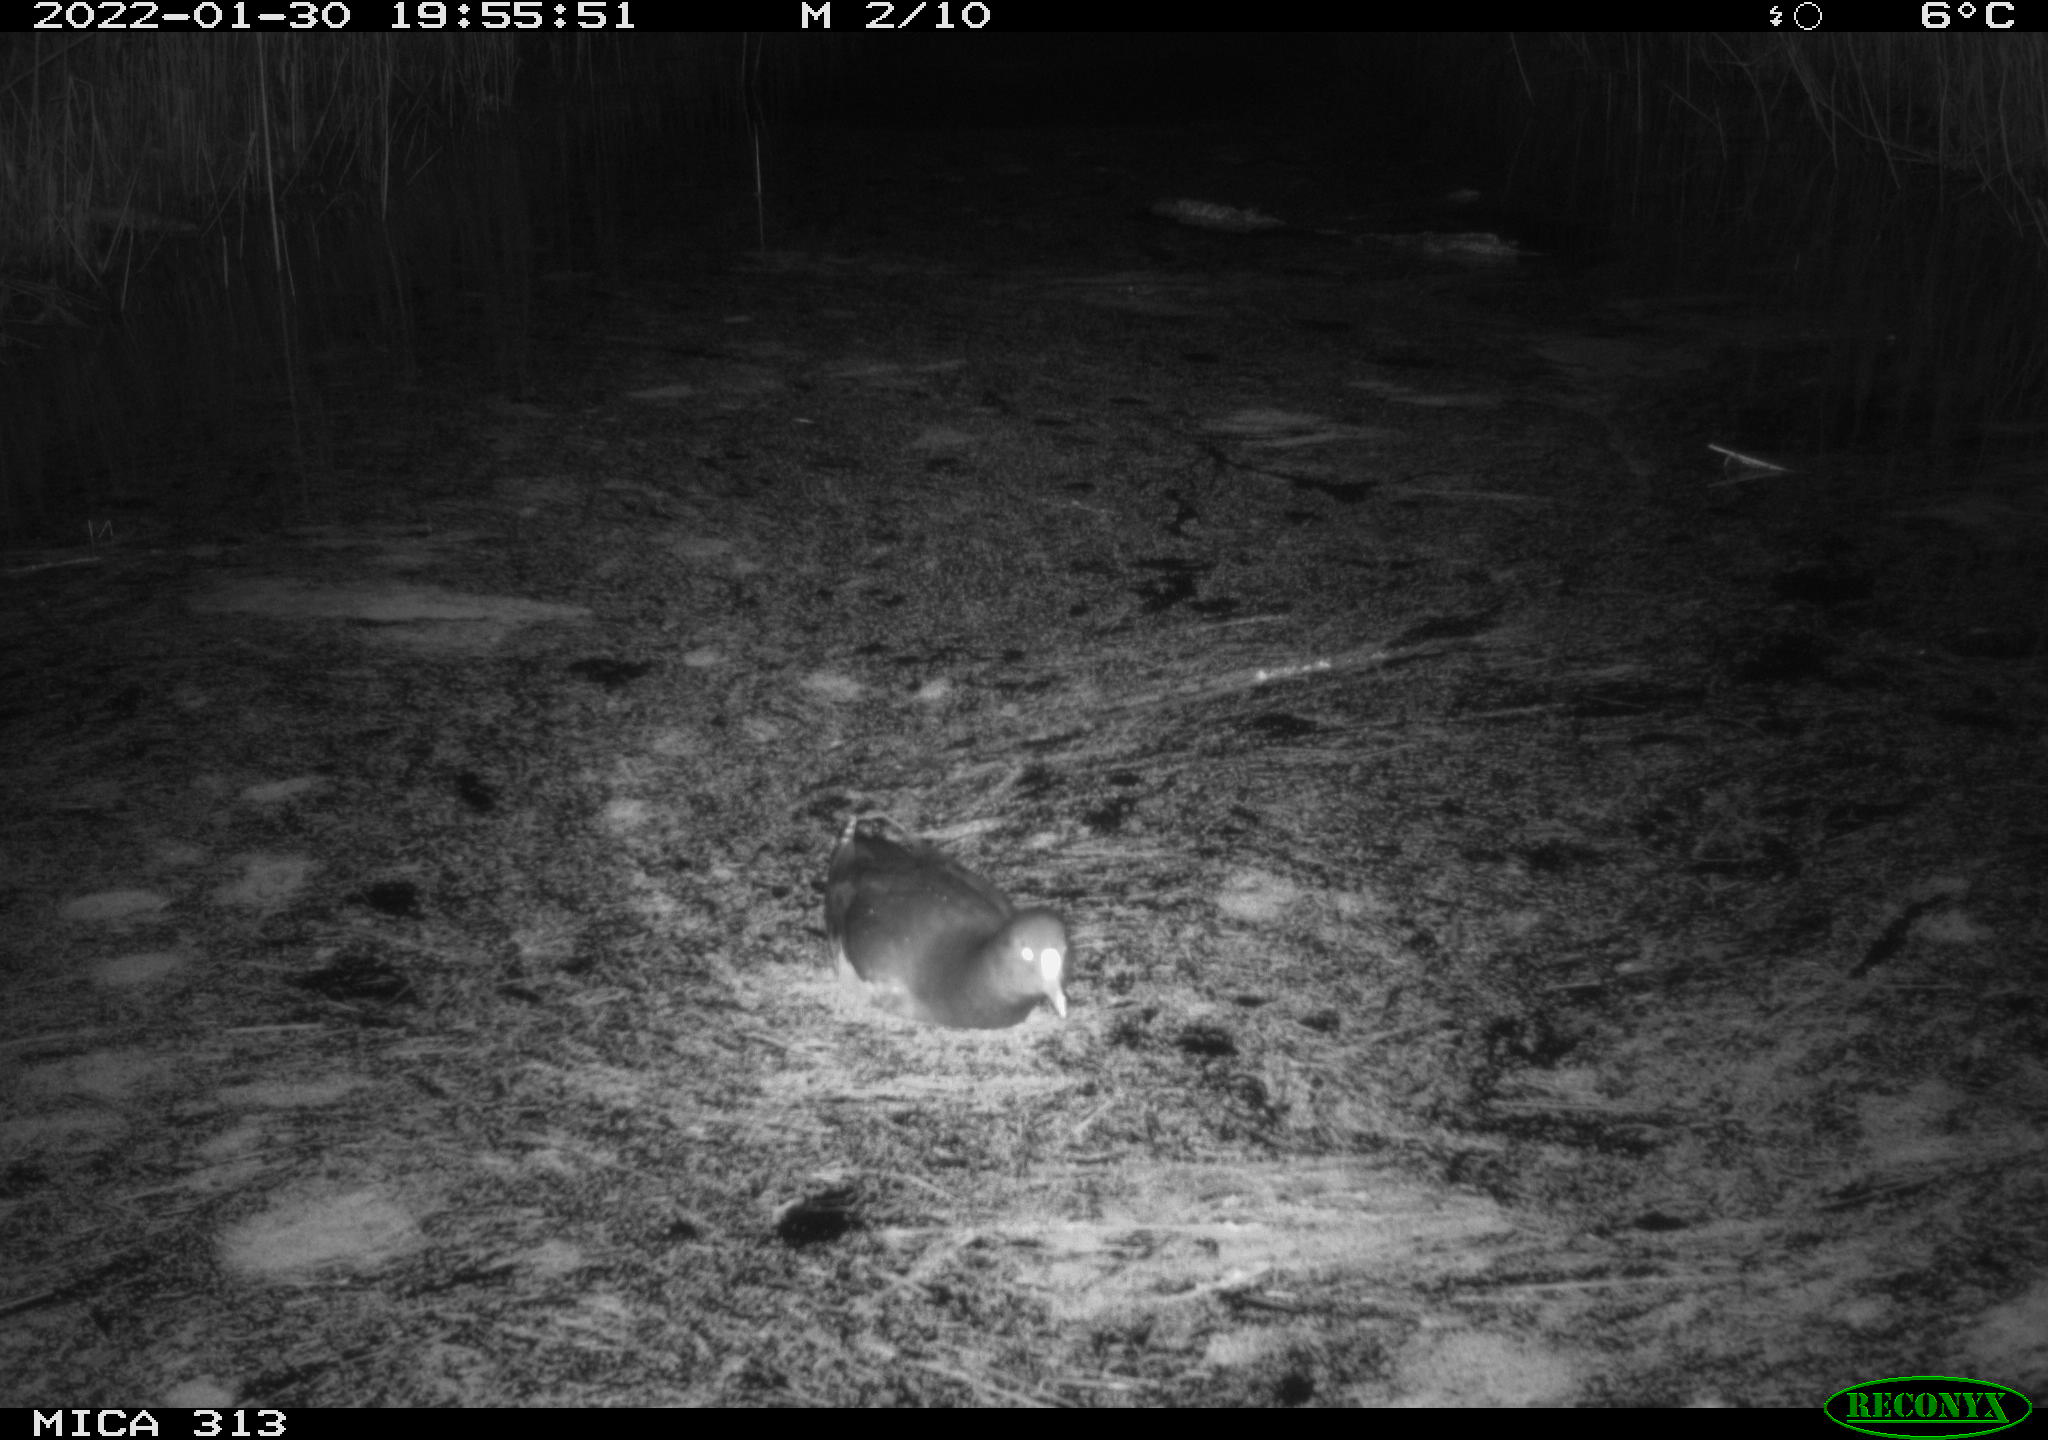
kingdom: Animalia
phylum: Chordata
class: Aves
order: Gruiformes
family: Rallidae
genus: Fulica
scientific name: Fulica atra
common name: Eurasian coot
